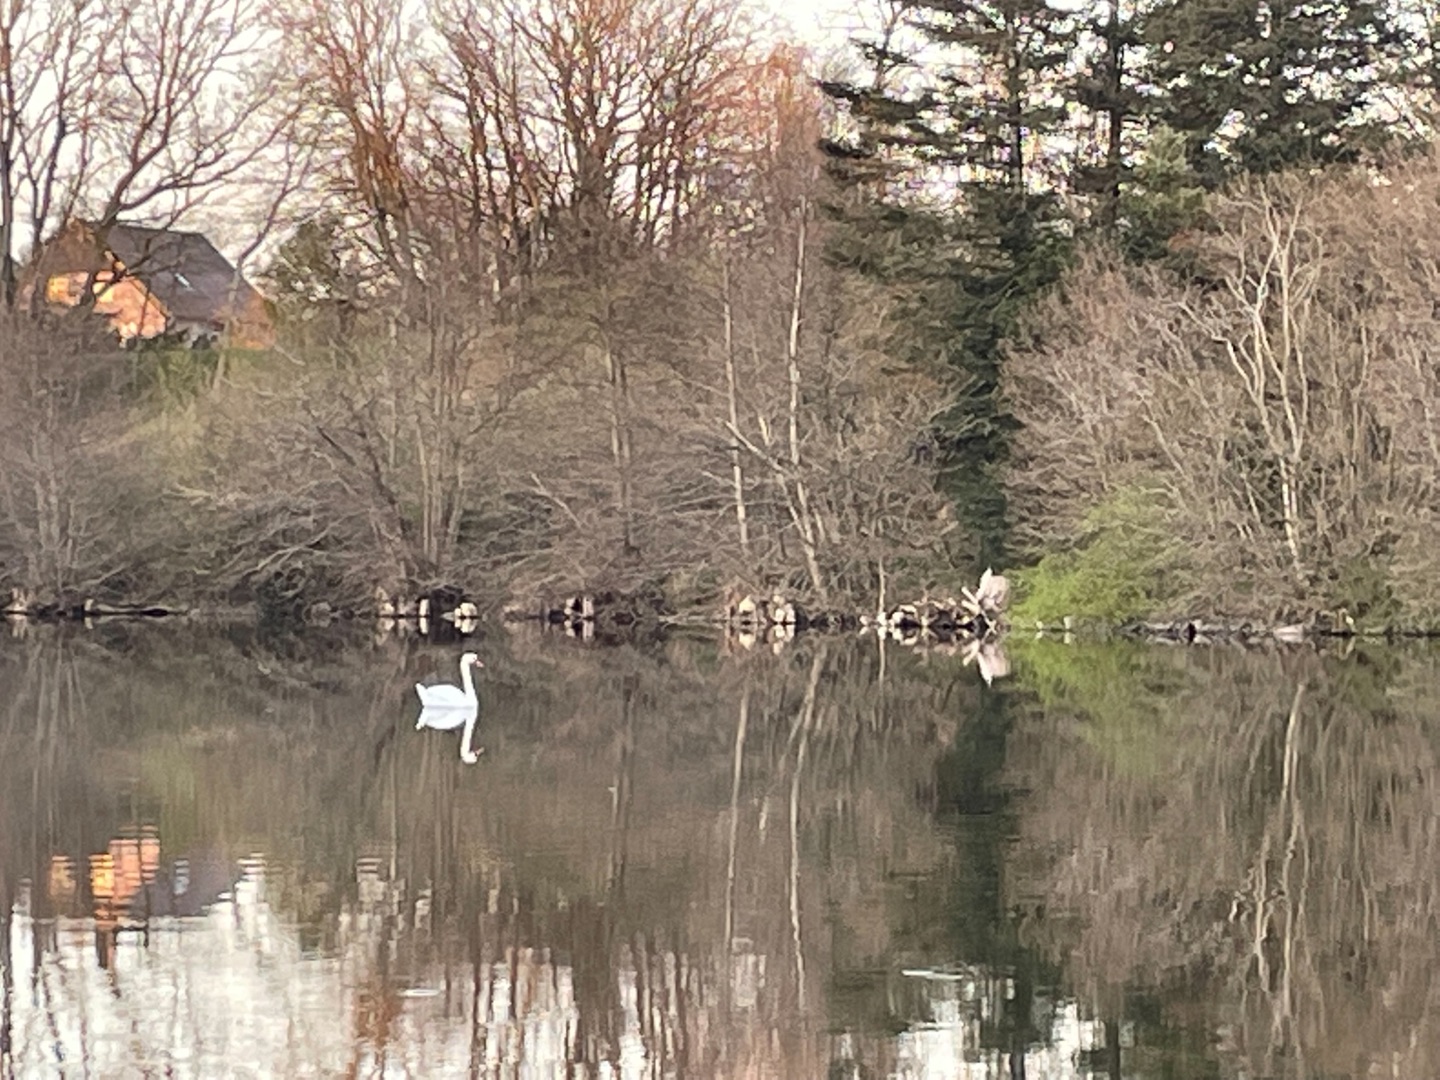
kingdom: Animalia
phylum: Chordata
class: Aves
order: Anseriformes
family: Anatidae
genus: Cygnus
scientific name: Cygnus olor
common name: Knopsvane
